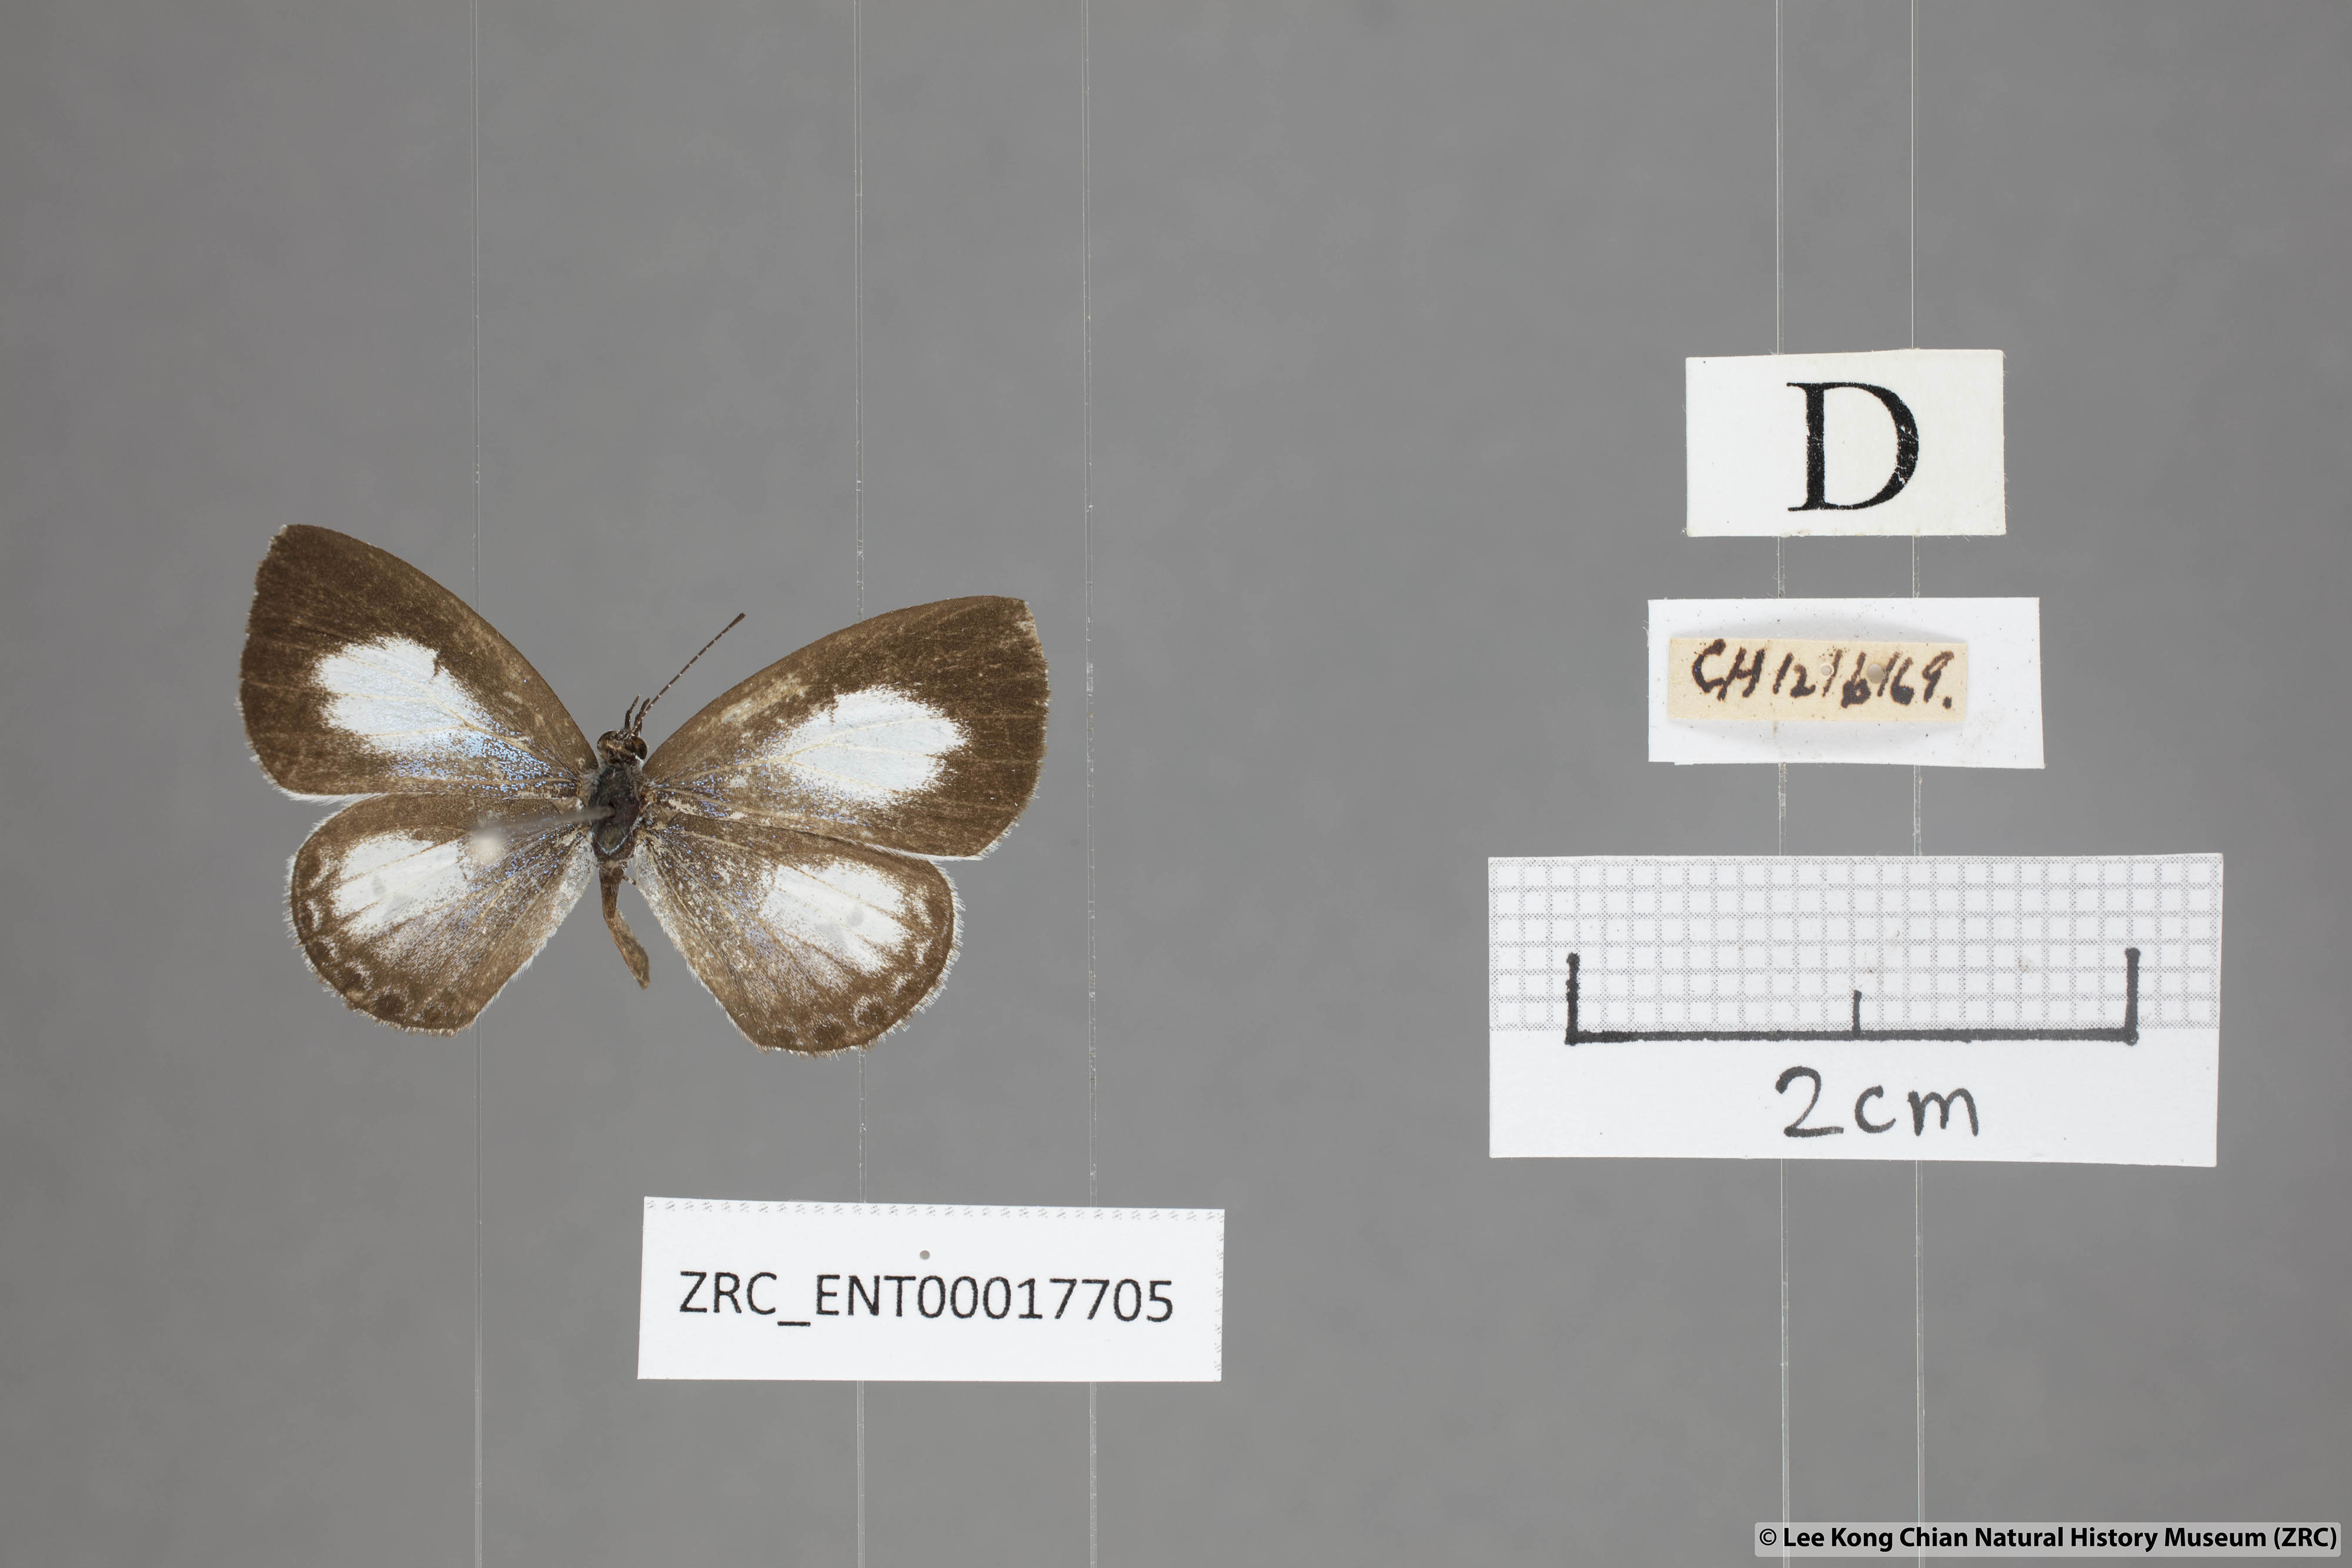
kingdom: Animalia
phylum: Arthropoda
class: Insecta
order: Lepidoptera
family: Lycaenidae
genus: Lycaenopsis
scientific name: Lycaenopsis marginata
